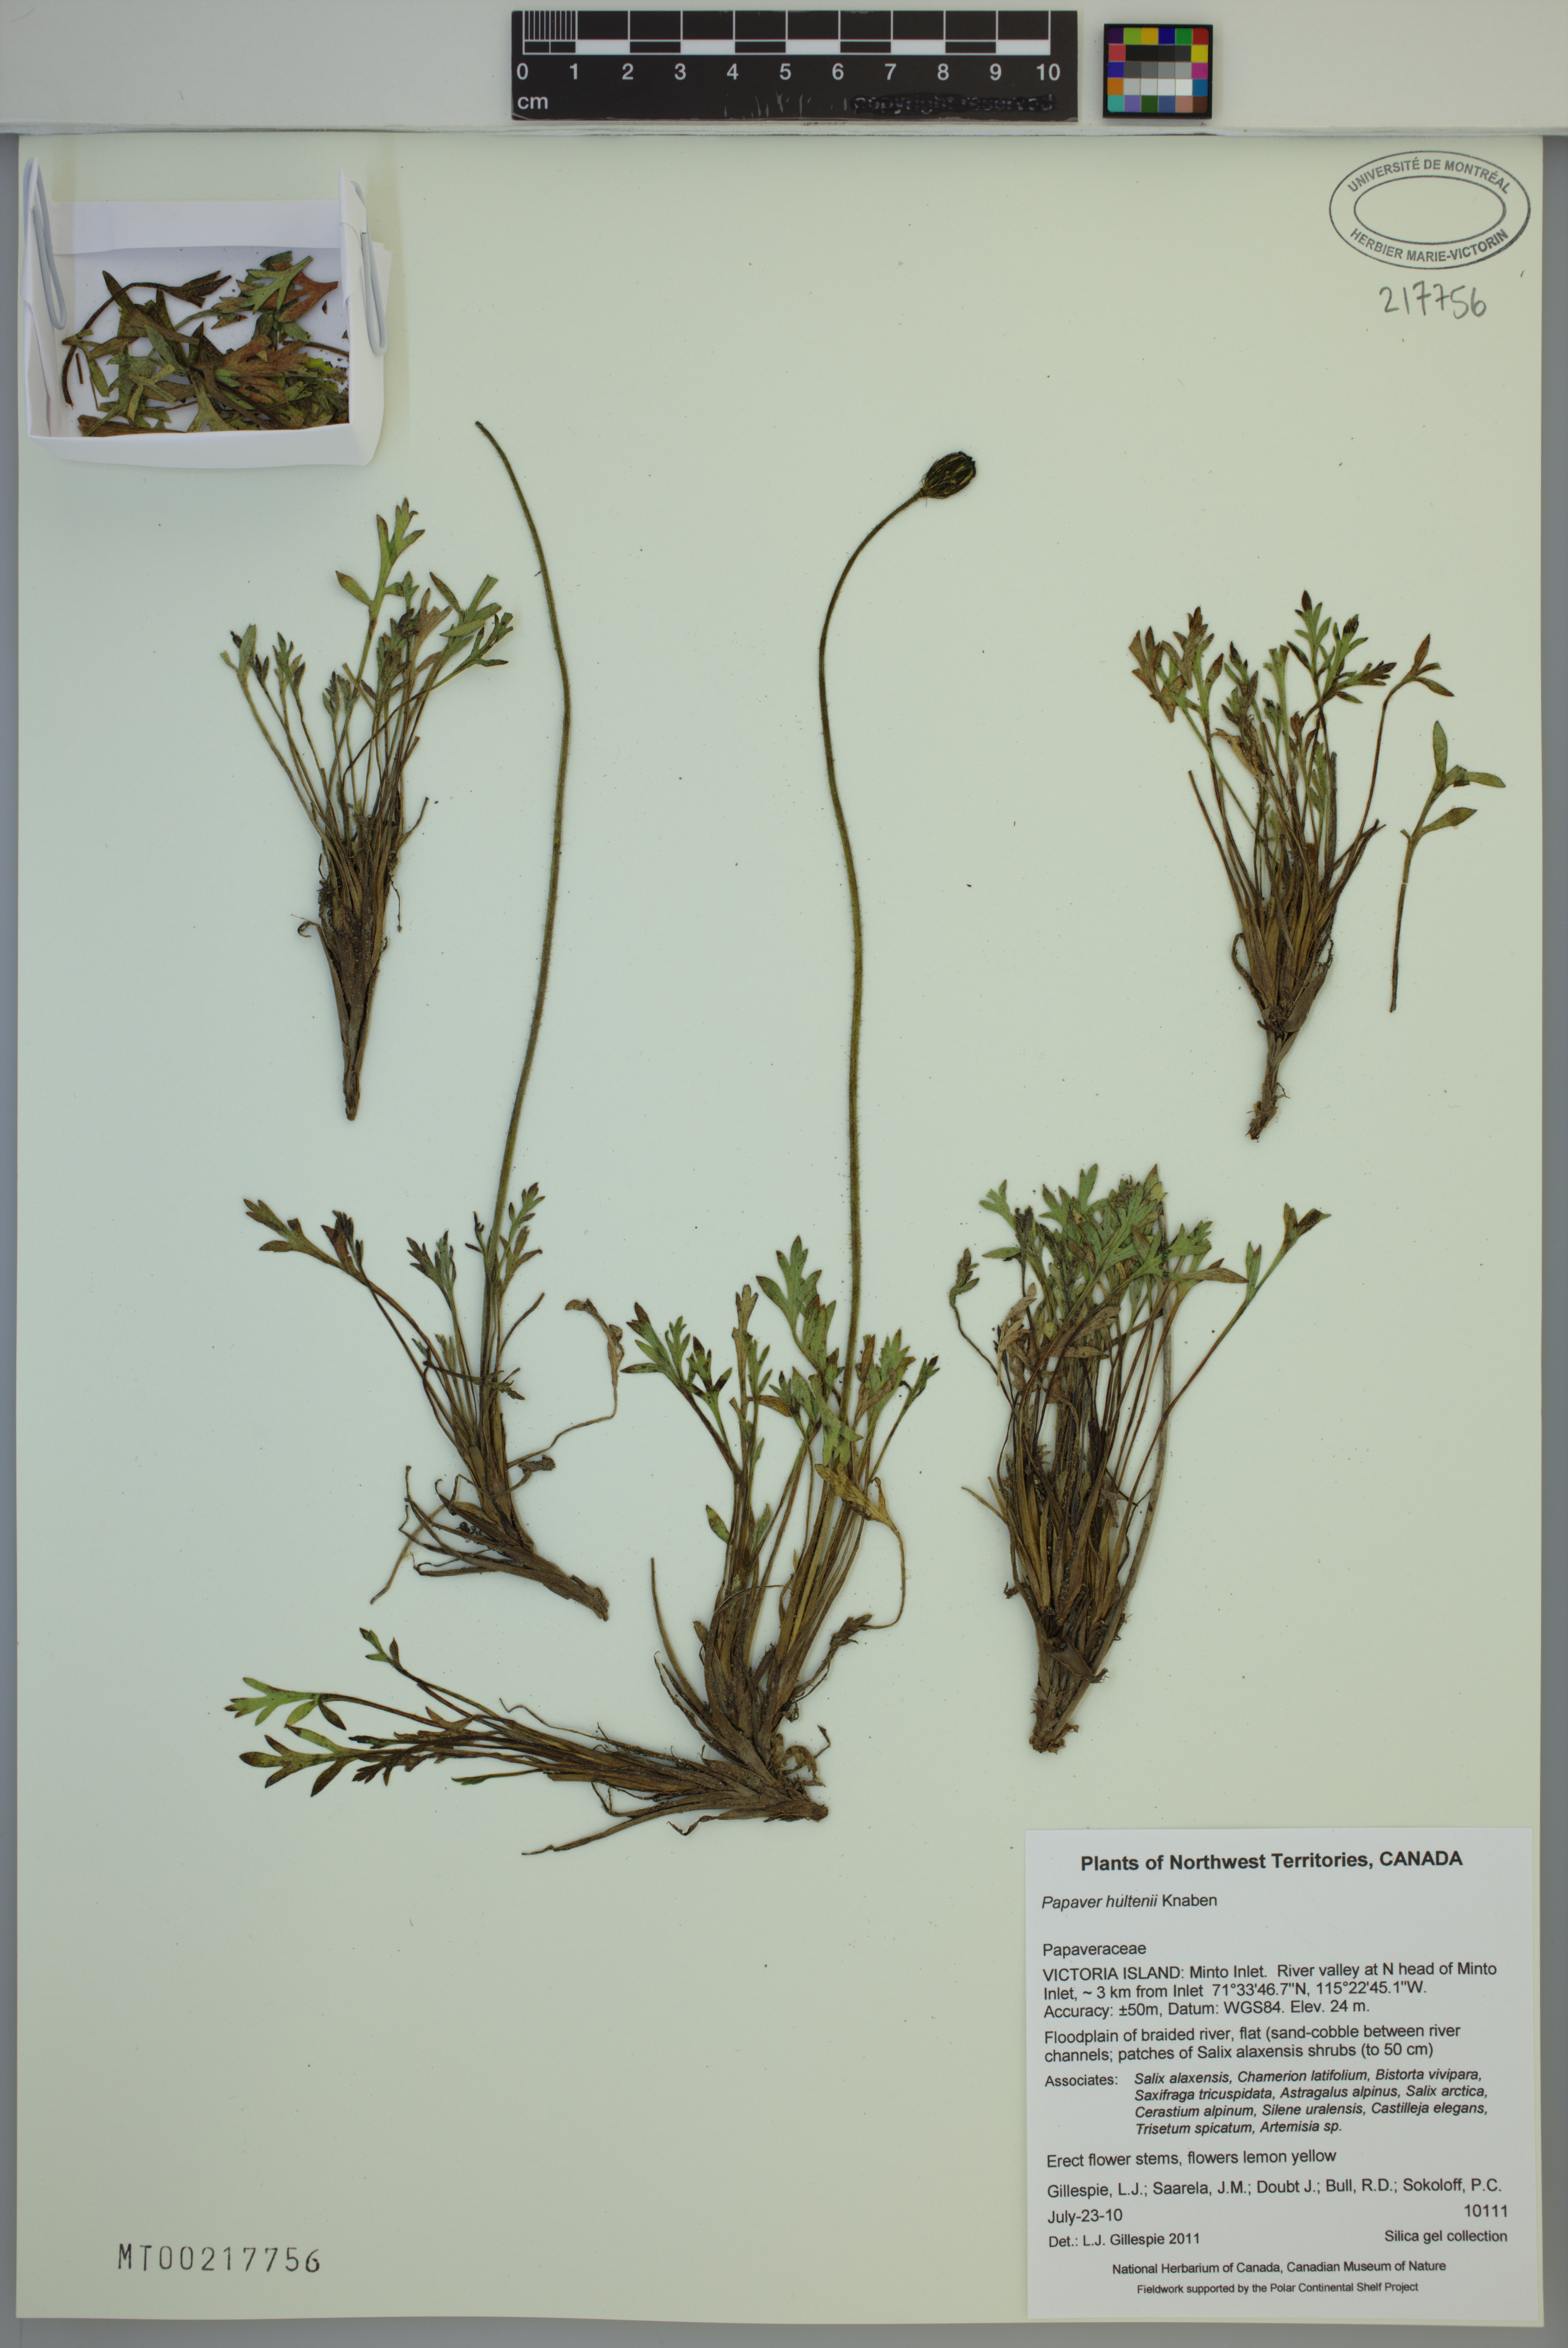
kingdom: Plantae
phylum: Tracheophyta
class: Magnoliopsida
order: Ranunculales
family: Papaveraceae
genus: Papaver
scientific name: Papaver lapponicum
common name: Lapland poppy
